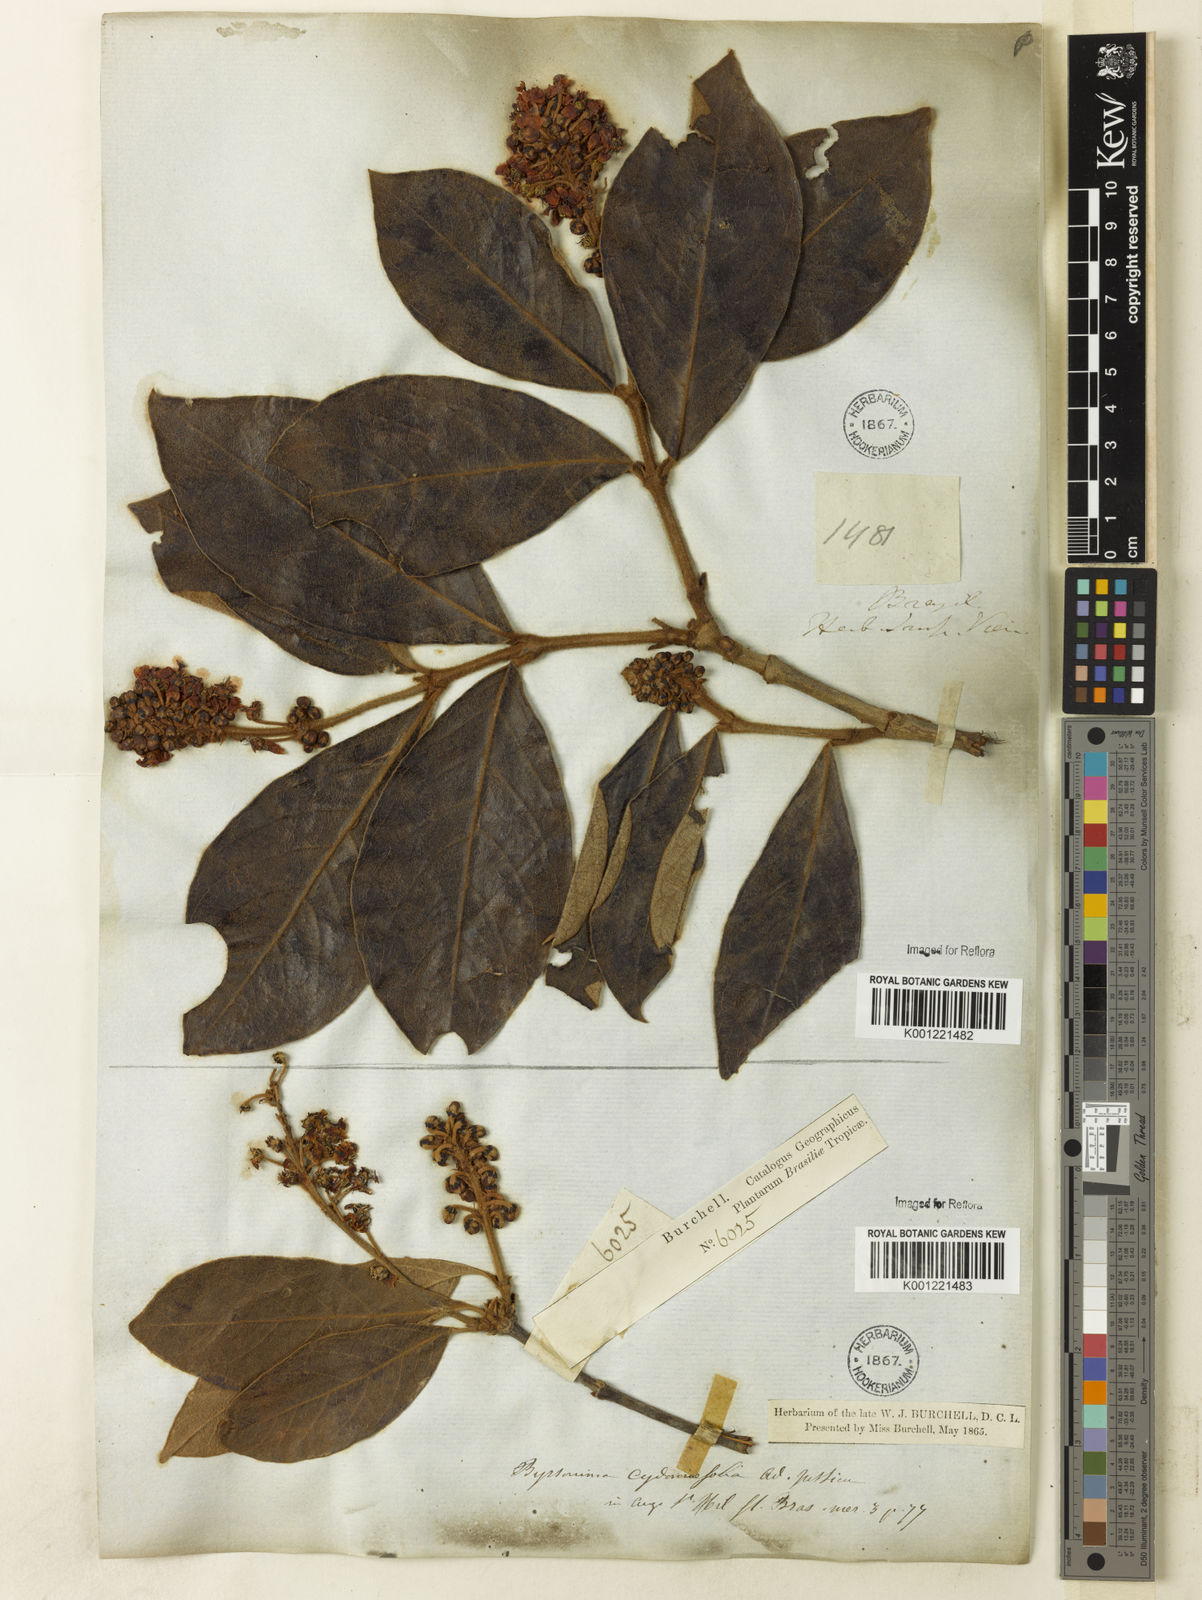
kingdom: Plantae
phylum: Tracheophyta
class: Magnoliopsida
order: Malpighiales
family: Malpighiaceae
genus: Byrsonima
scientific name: Byrsonima cydoniifolia
